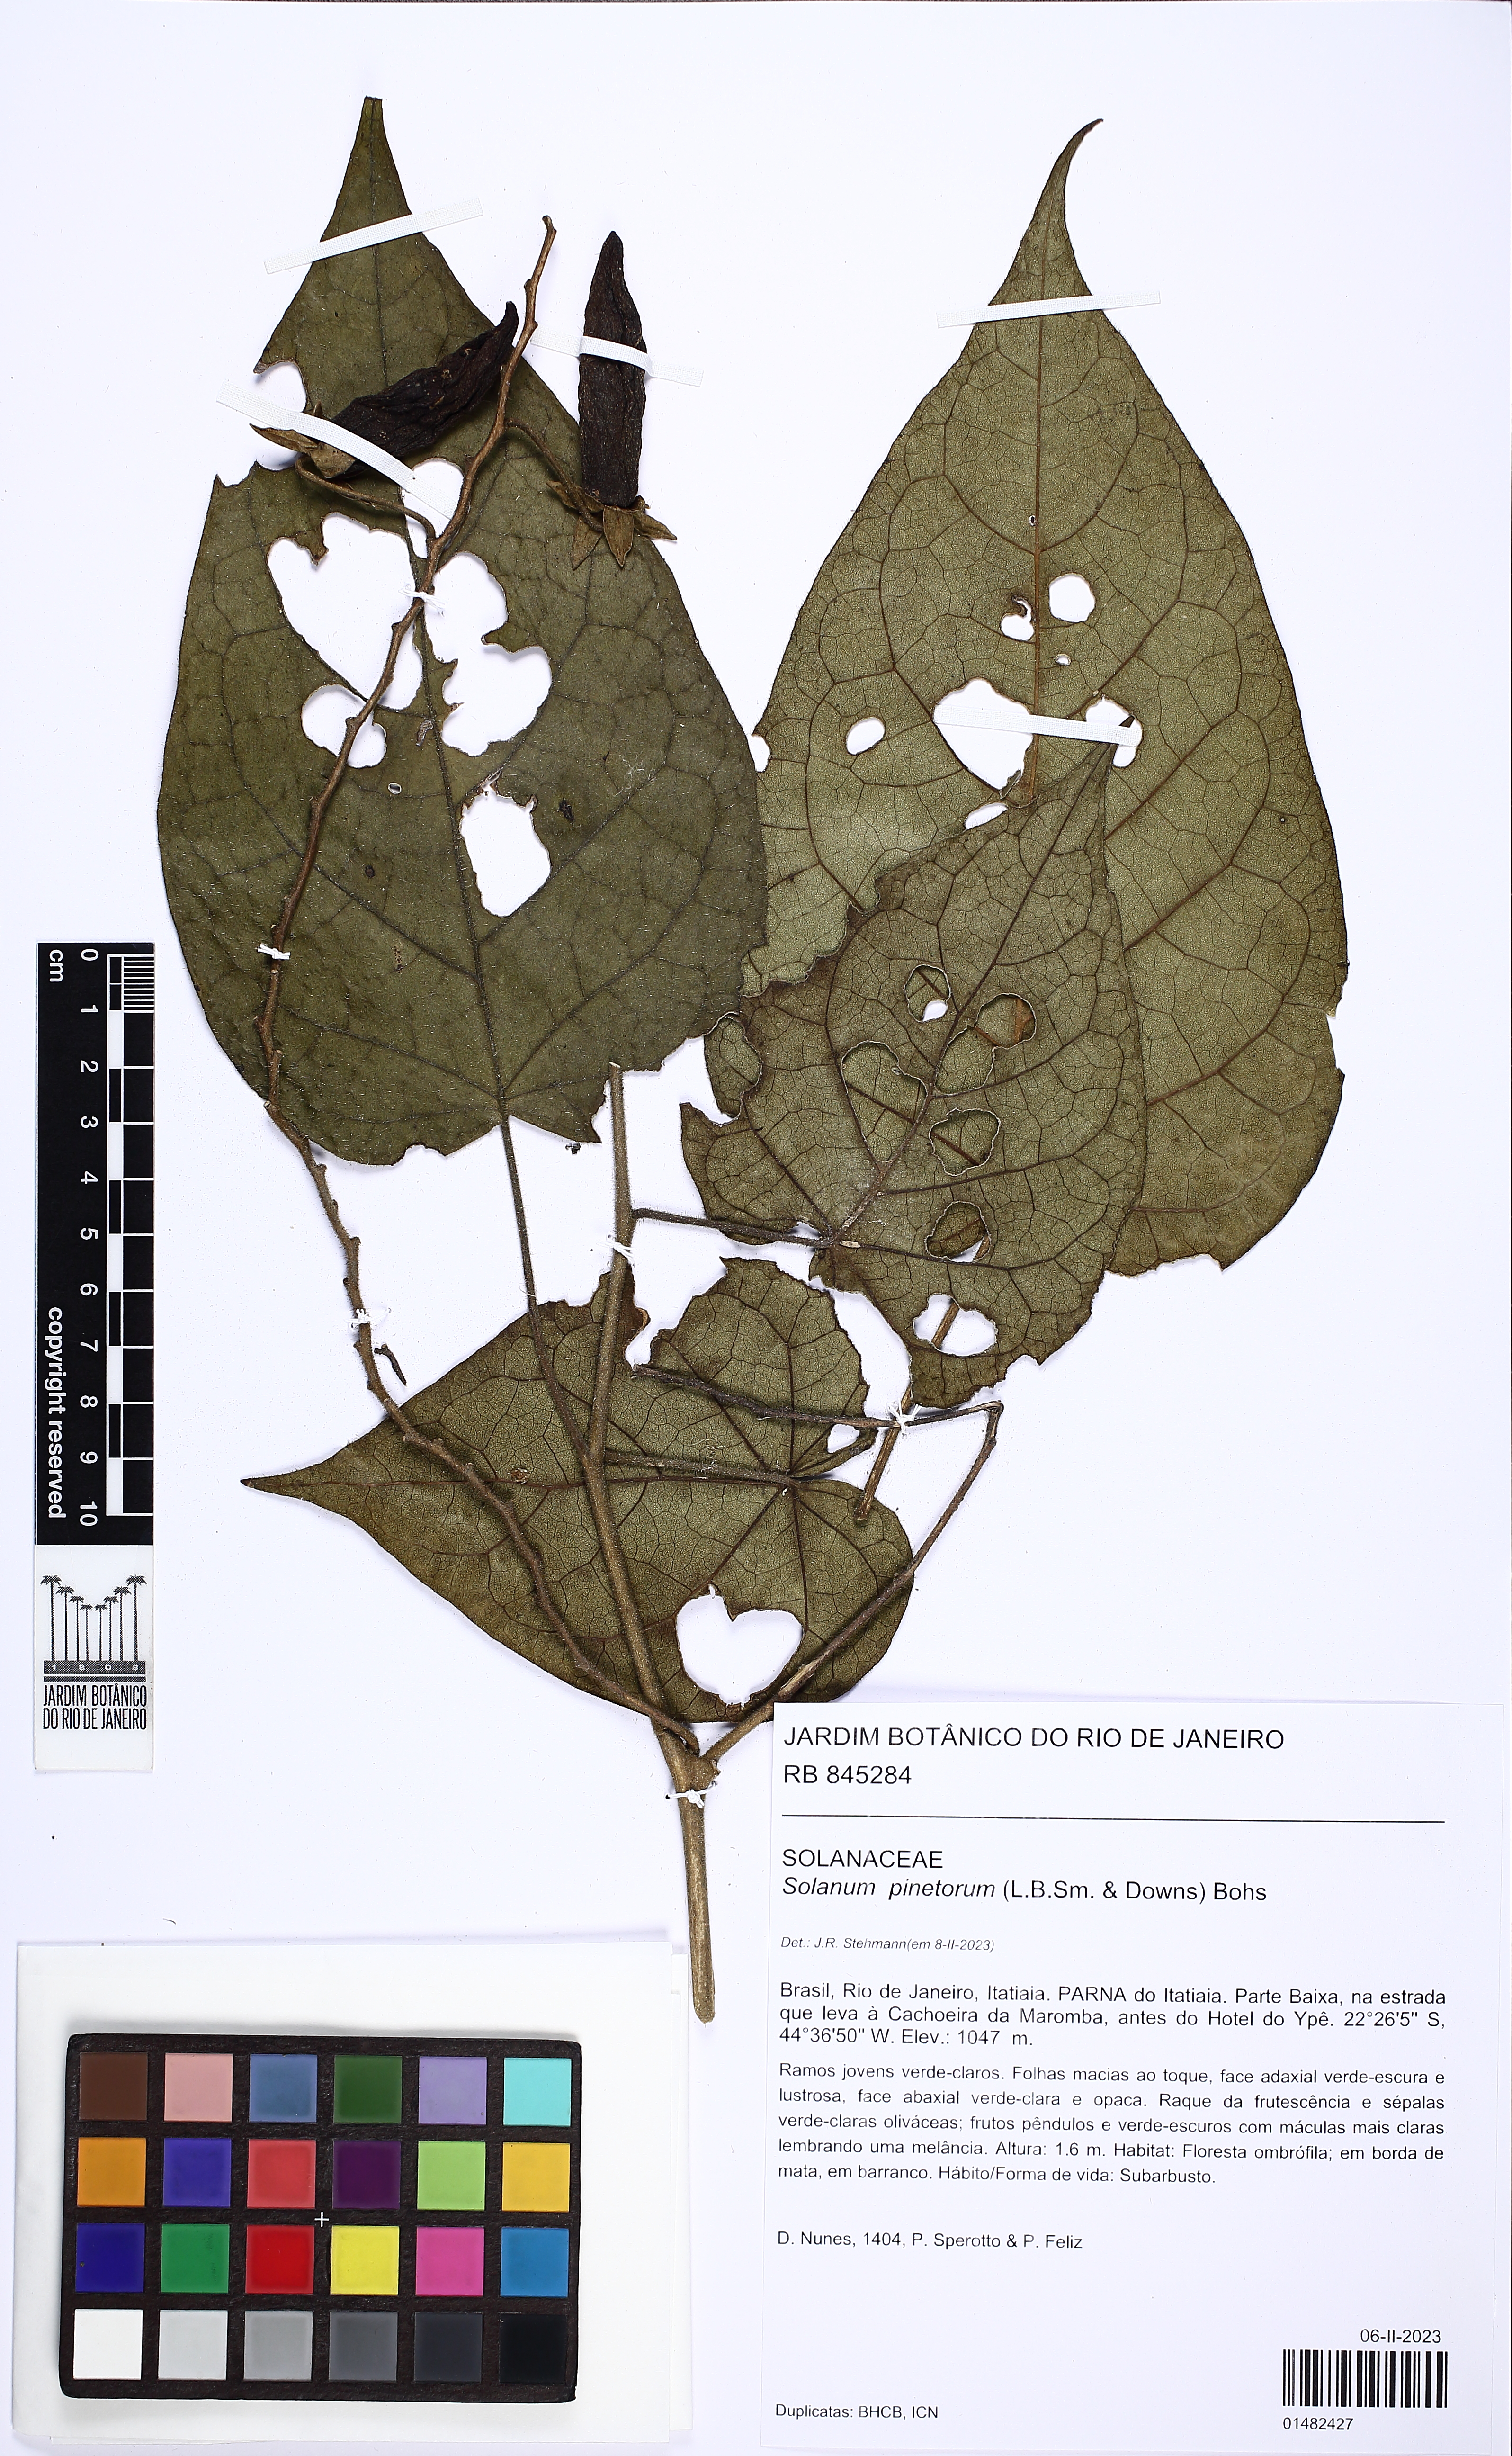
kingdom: Plantae
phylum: Tracheophyta
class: Magnoliopsida
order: Solanales
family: Solanaceae
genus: Solanum
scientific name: Solanum pinetorum
